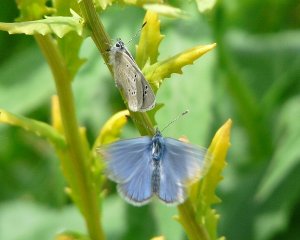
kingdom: Animalia
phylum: Arthropoda
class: Insecta
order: Lepidoptera
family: Lycaenidae
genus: Glaucopsyche
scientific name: Glaucopsyche lygdamus
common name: Silvery Blue
